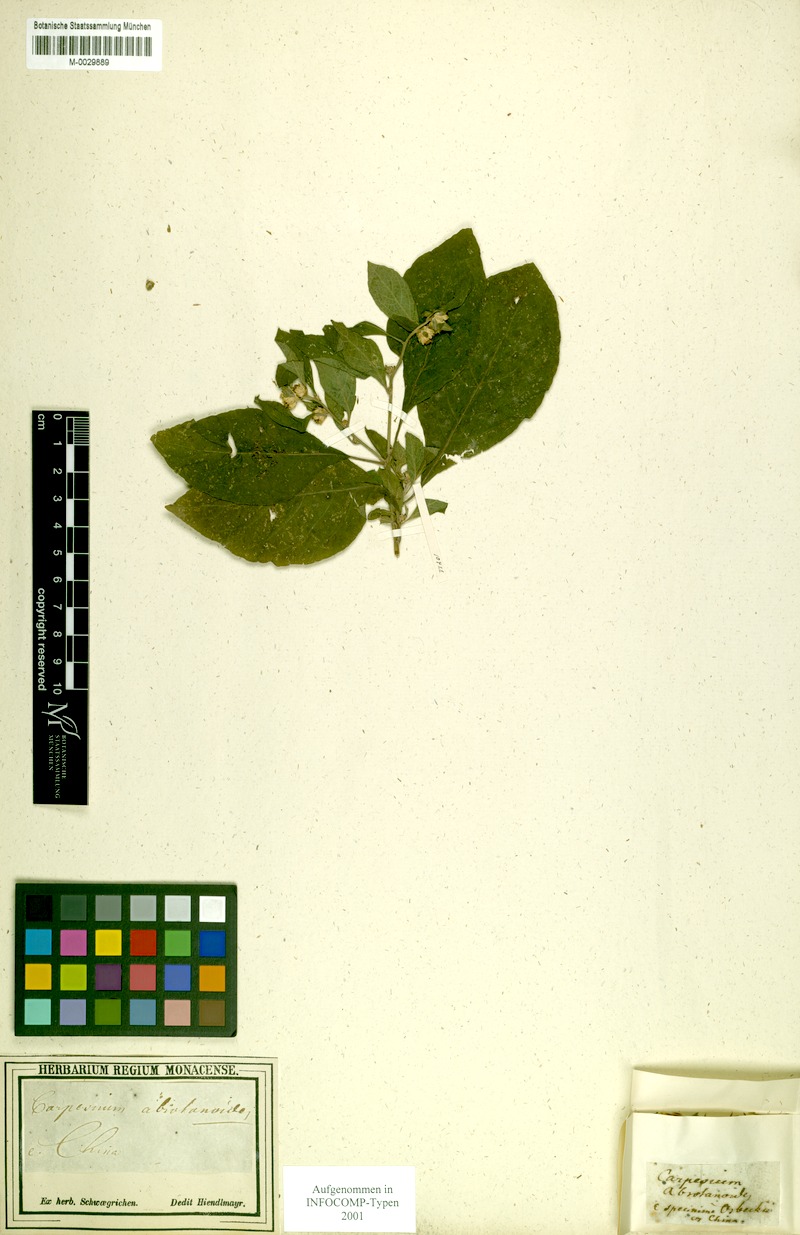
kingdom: Plantae
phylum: Tracheophyta
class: Magnoliopsida
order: Asterales
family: Asteraceae
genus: Carpesium
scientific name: Carpesium abrotanoides
